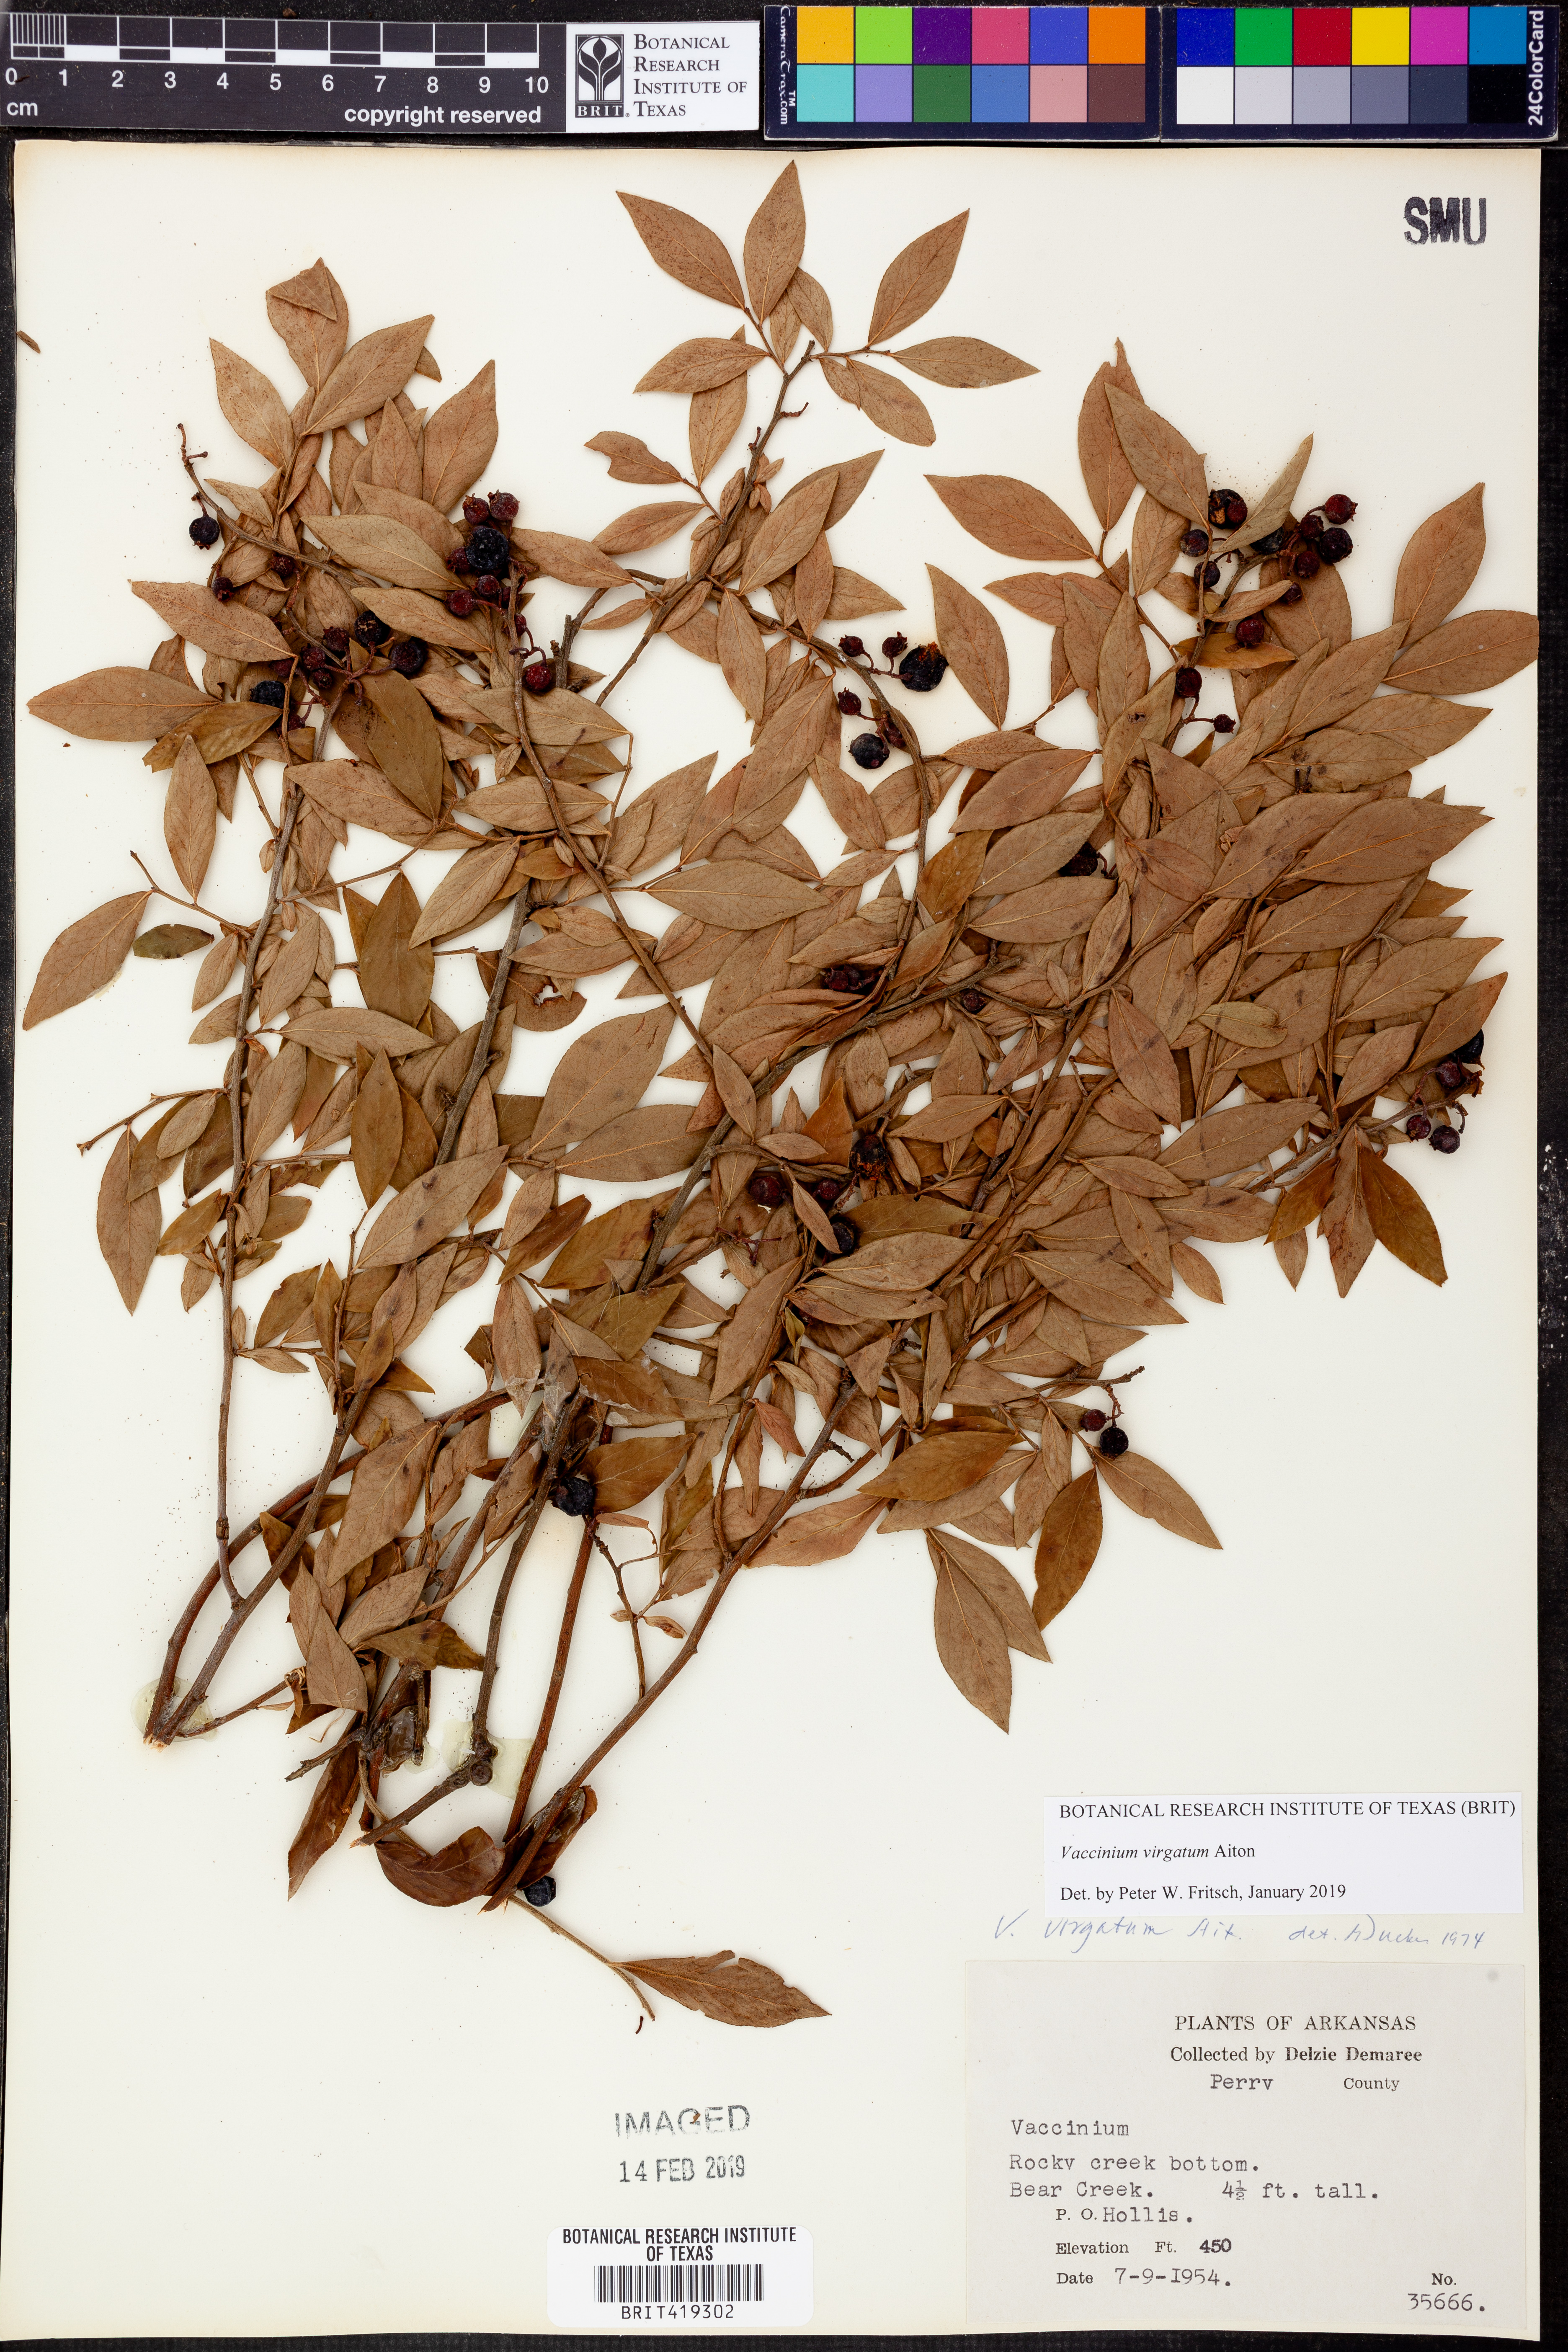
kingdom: Plantae
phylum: Tracheophyta
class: Magnoliopsida
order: Ericales
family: Ericaceae
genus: Vaccinium
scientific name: Vaccinium corymbosum
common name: Blueberry
